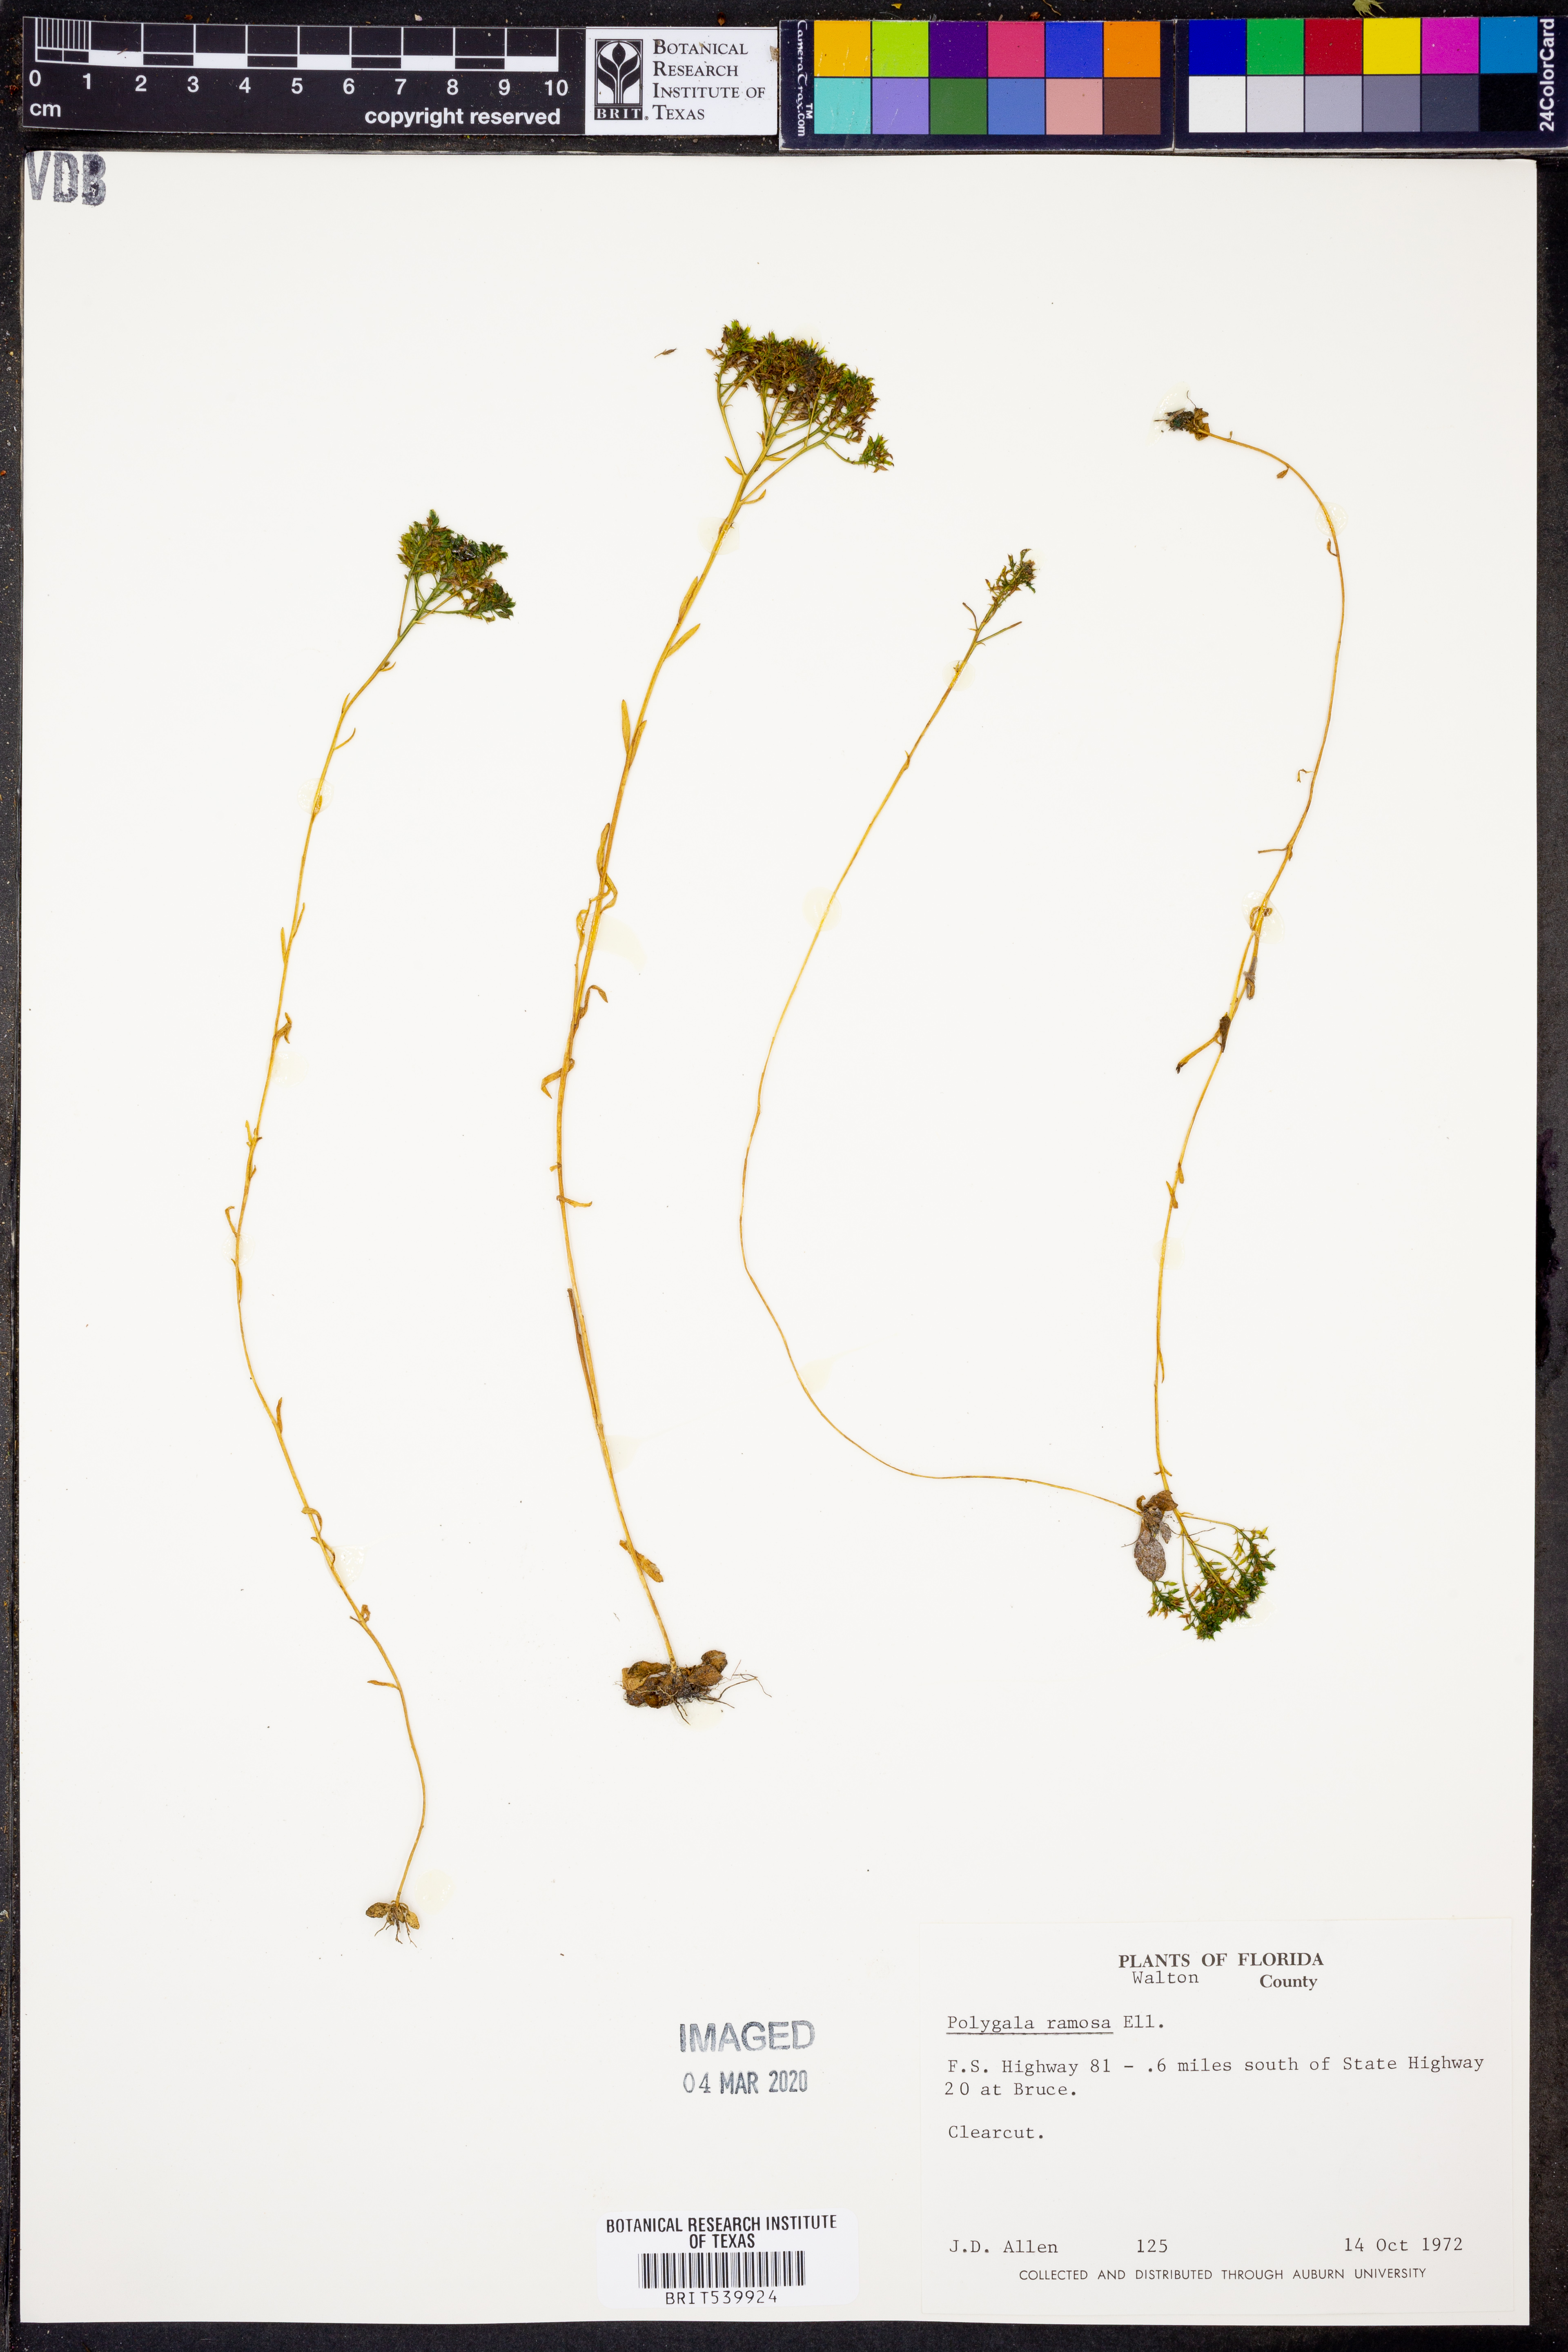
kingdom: Plantae
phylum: Tracheophyta
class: Magnoliopsida
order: Fabales
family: Polygalaceae
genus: Polygala
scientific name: Polygala ramosa
